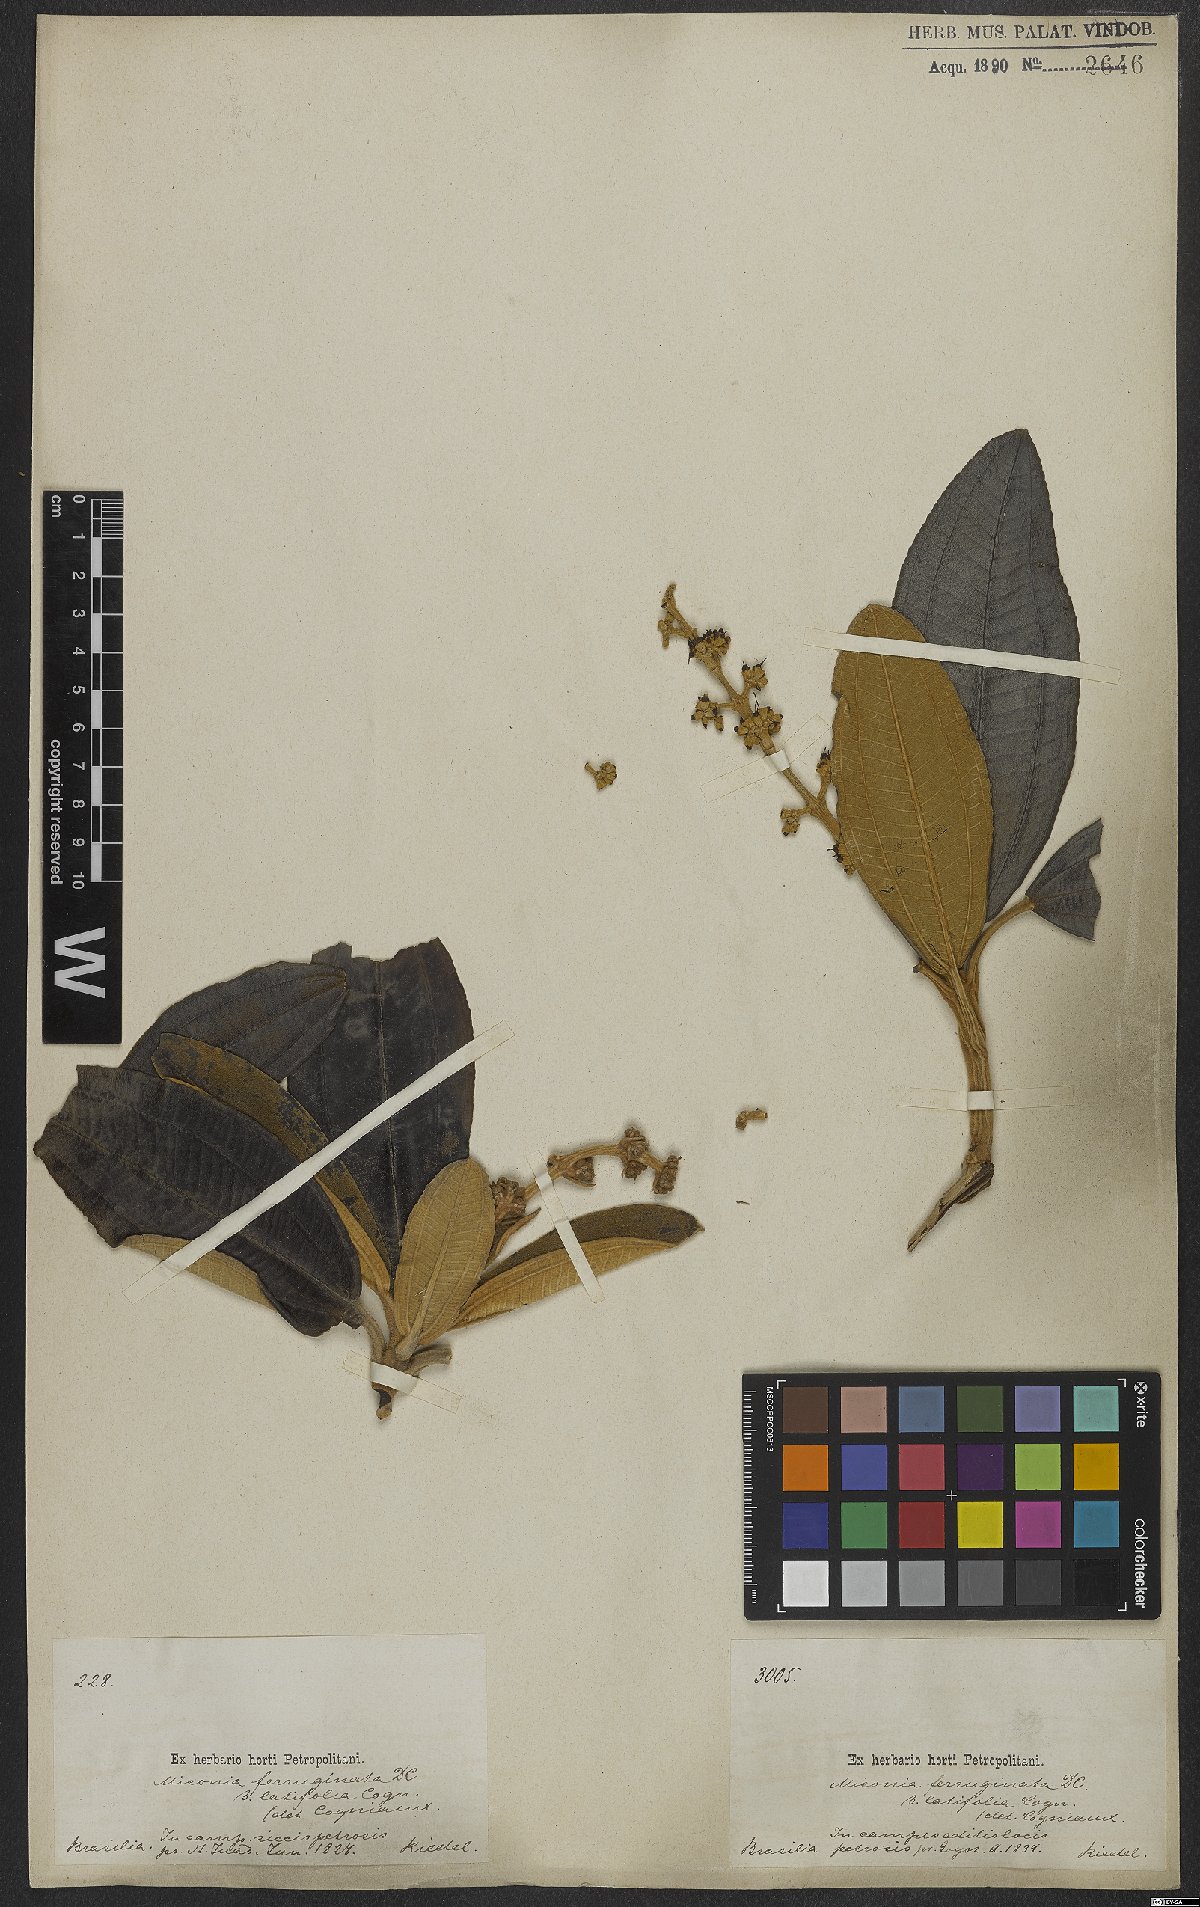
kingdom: Plantae
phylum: Tracheophyta
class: Magnoliopsida
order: Myrtales
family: Melastomataceae
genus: Miconia
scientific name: Miconia ferruginata
